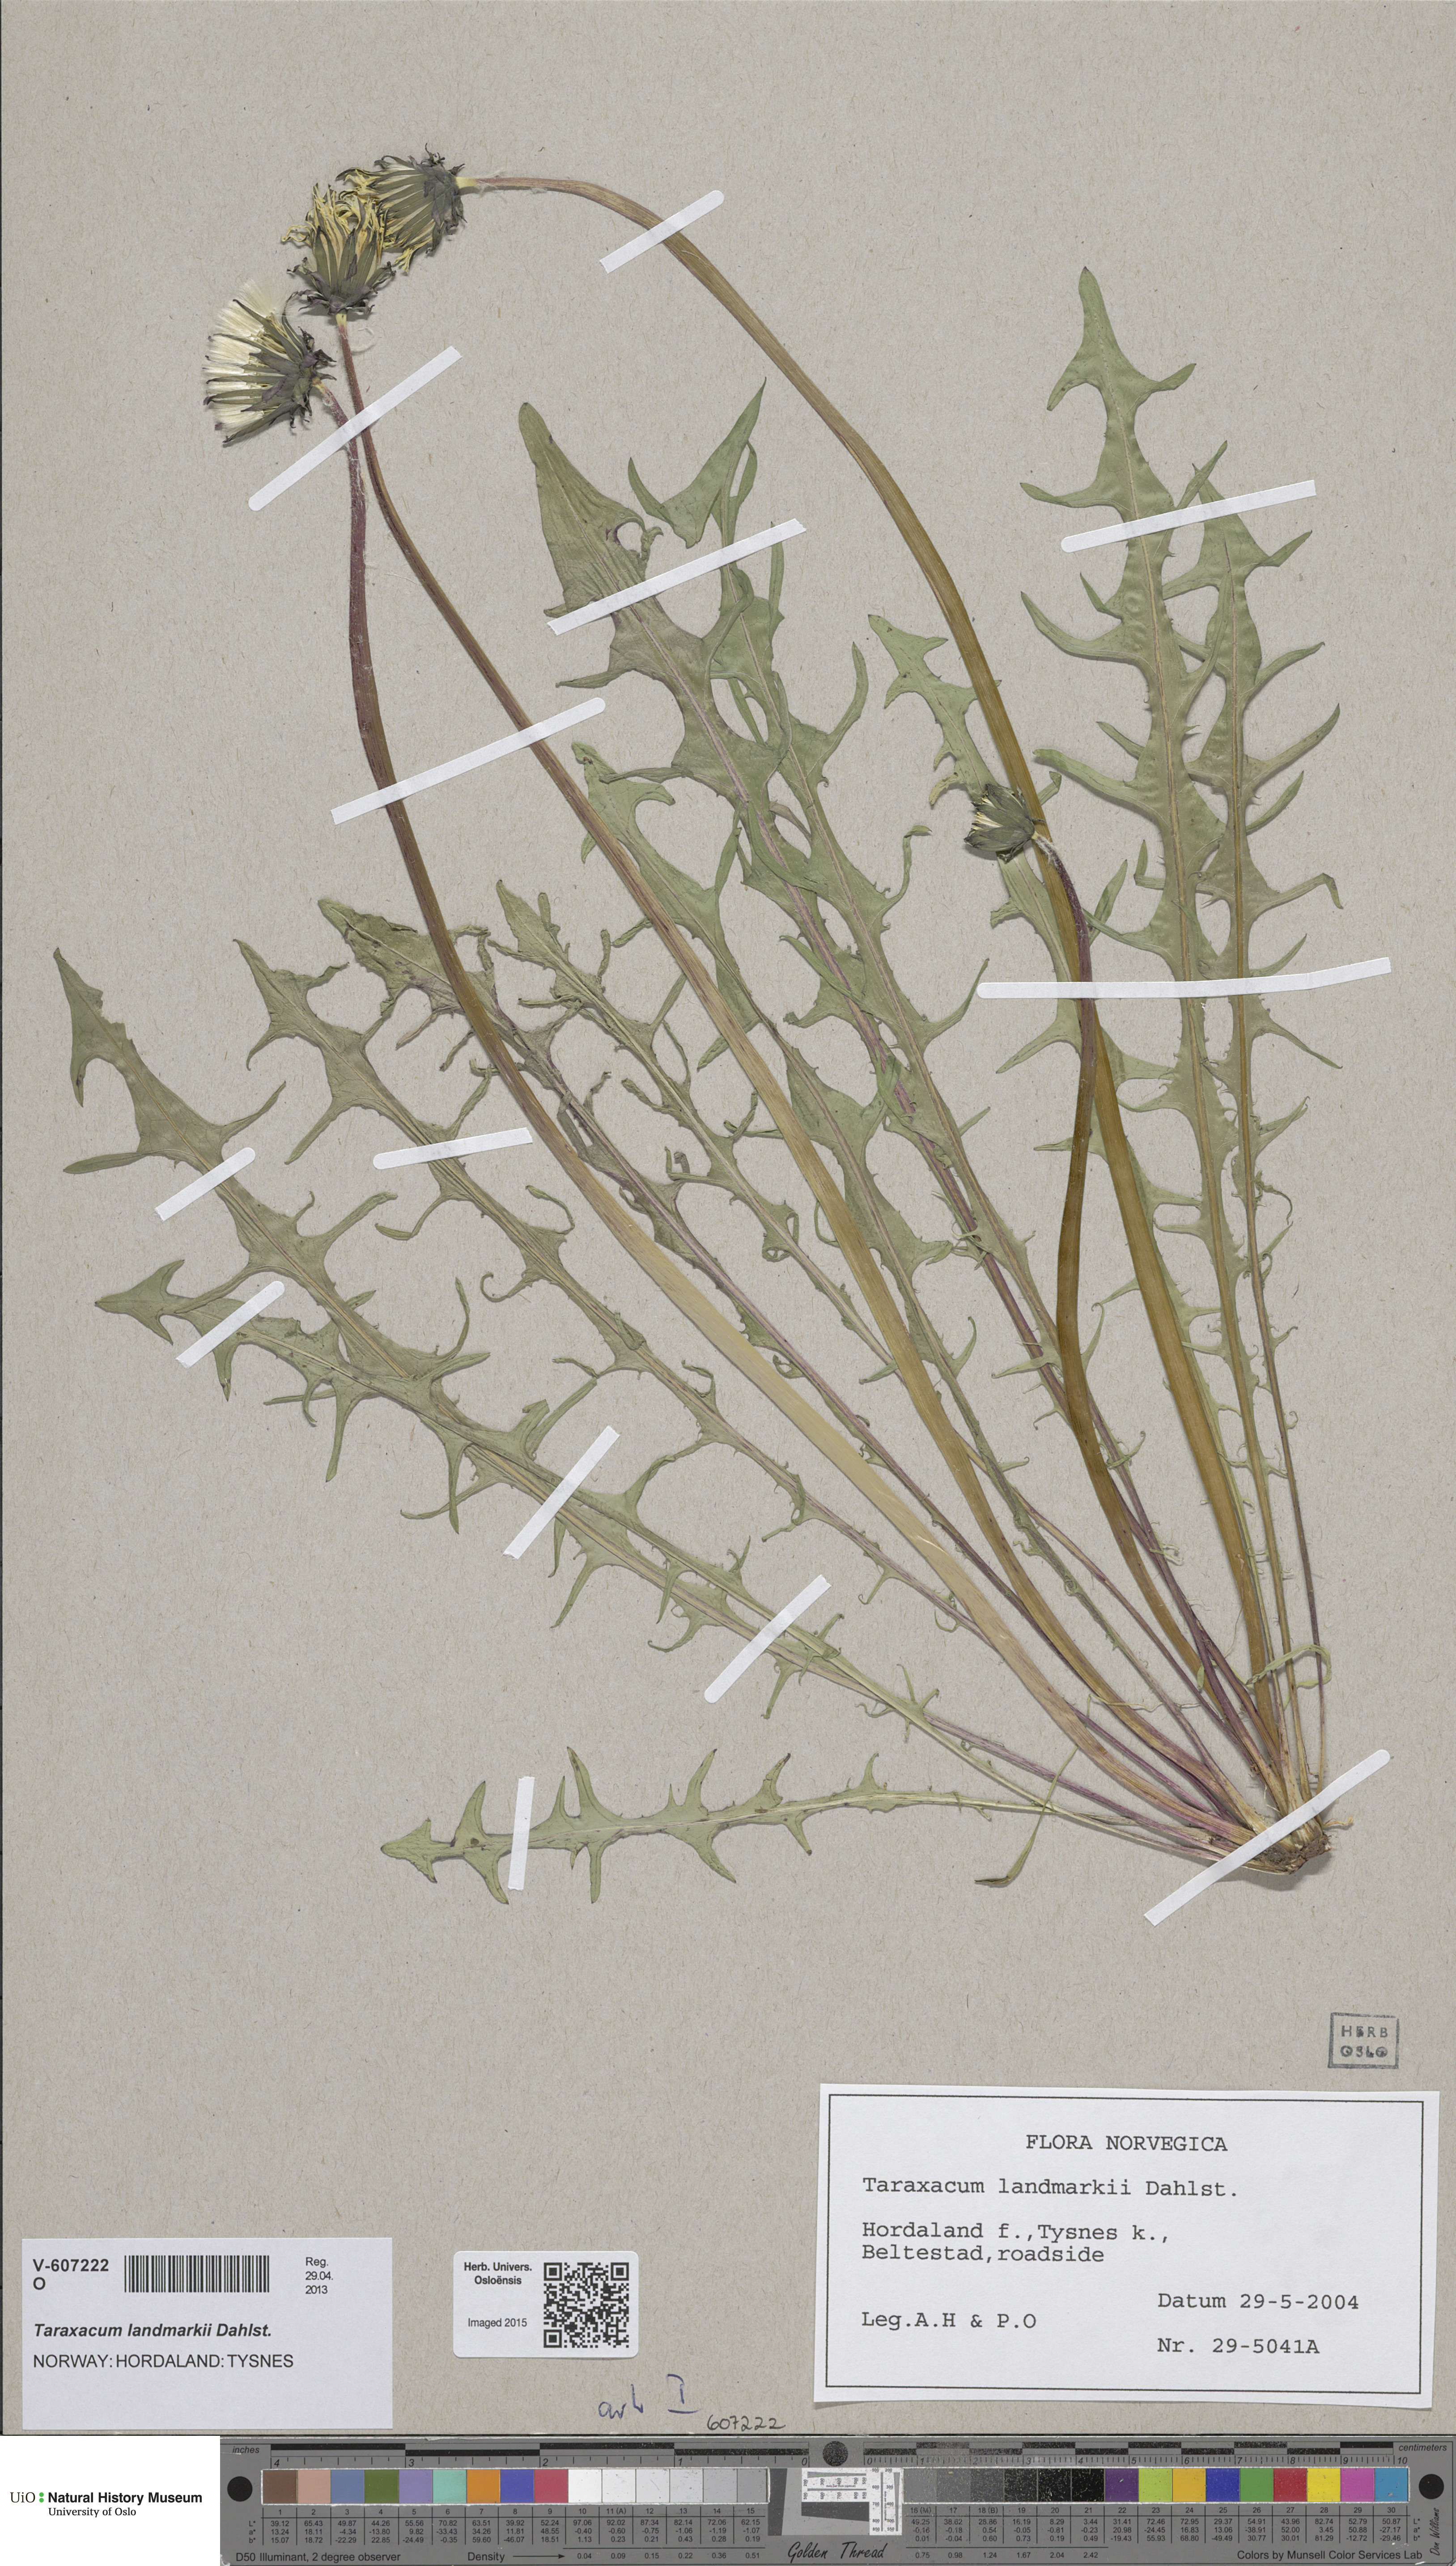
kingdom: Plantae
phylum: Tracheophyta
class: Magnoliopsida
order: Asterales
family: Asteraceae
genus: Taraxacum
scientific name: Taraxacum landmarkii
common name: Landmark dandelion
